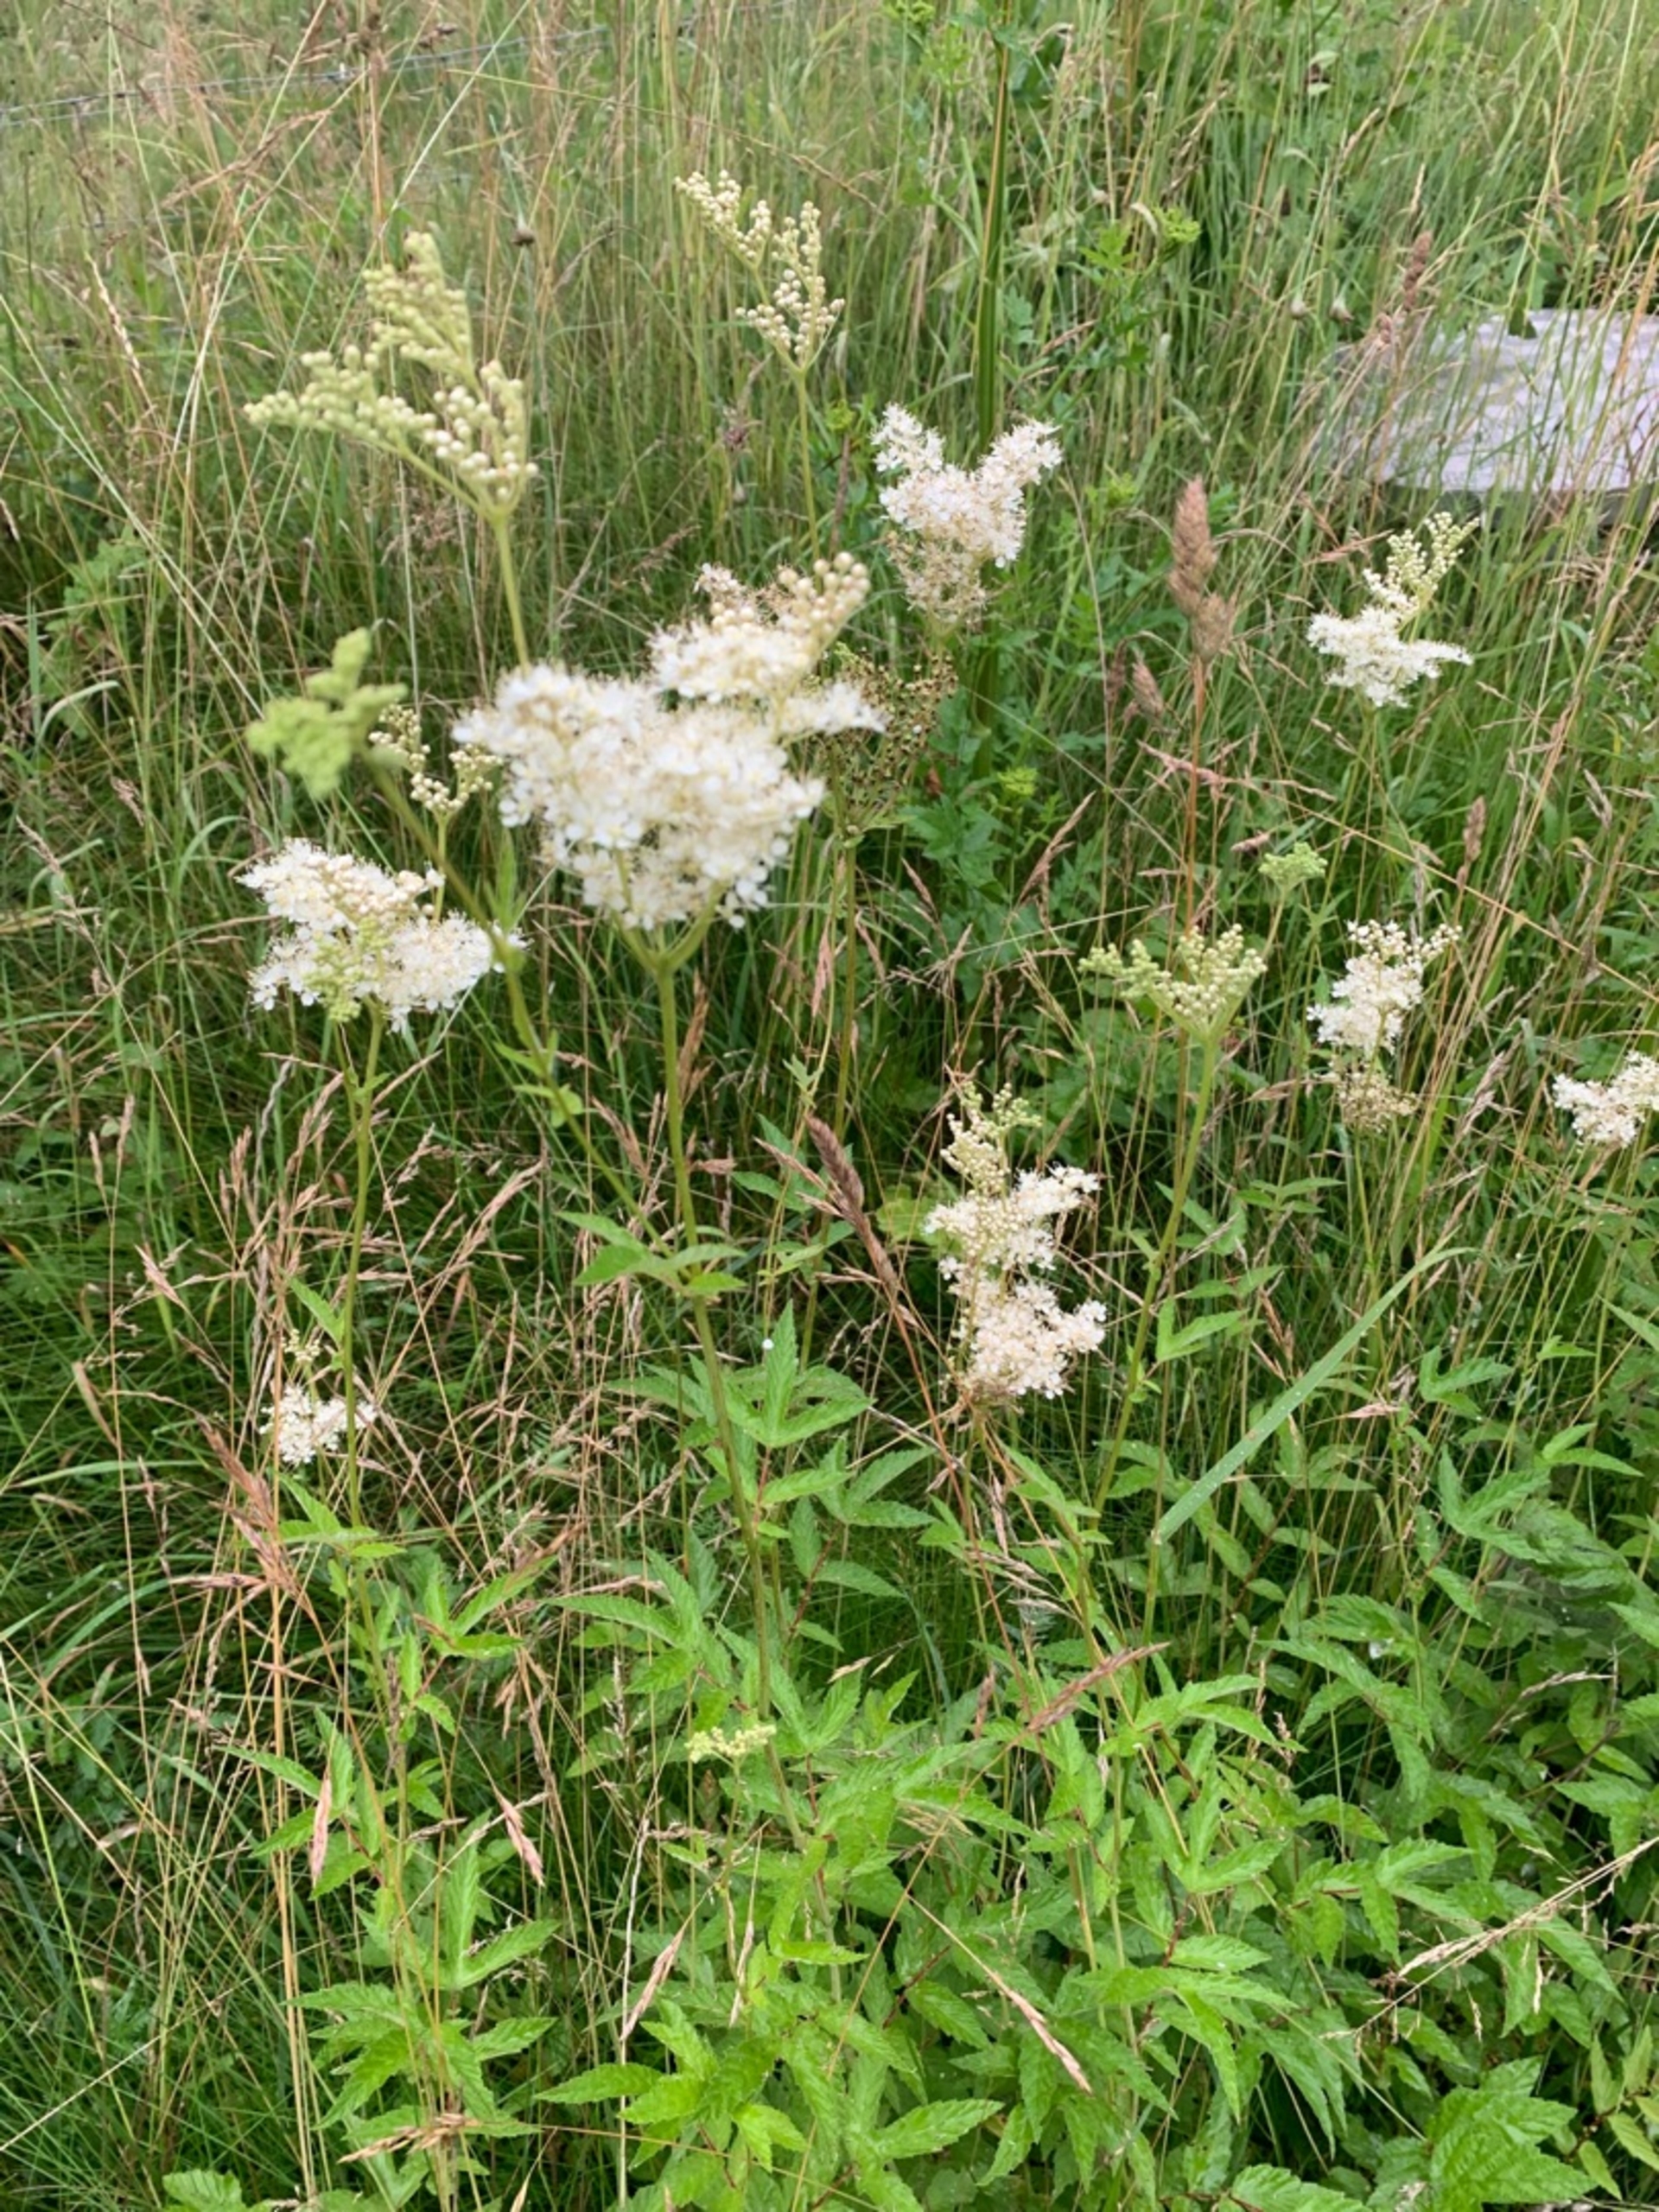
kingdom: Plantae
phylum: Tracheophyta
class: Magnoliopsida
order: Rosales
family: Rosaceae
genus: Filipendula
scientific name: Filipendula ulmaria
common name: Almindelig mjødurt
